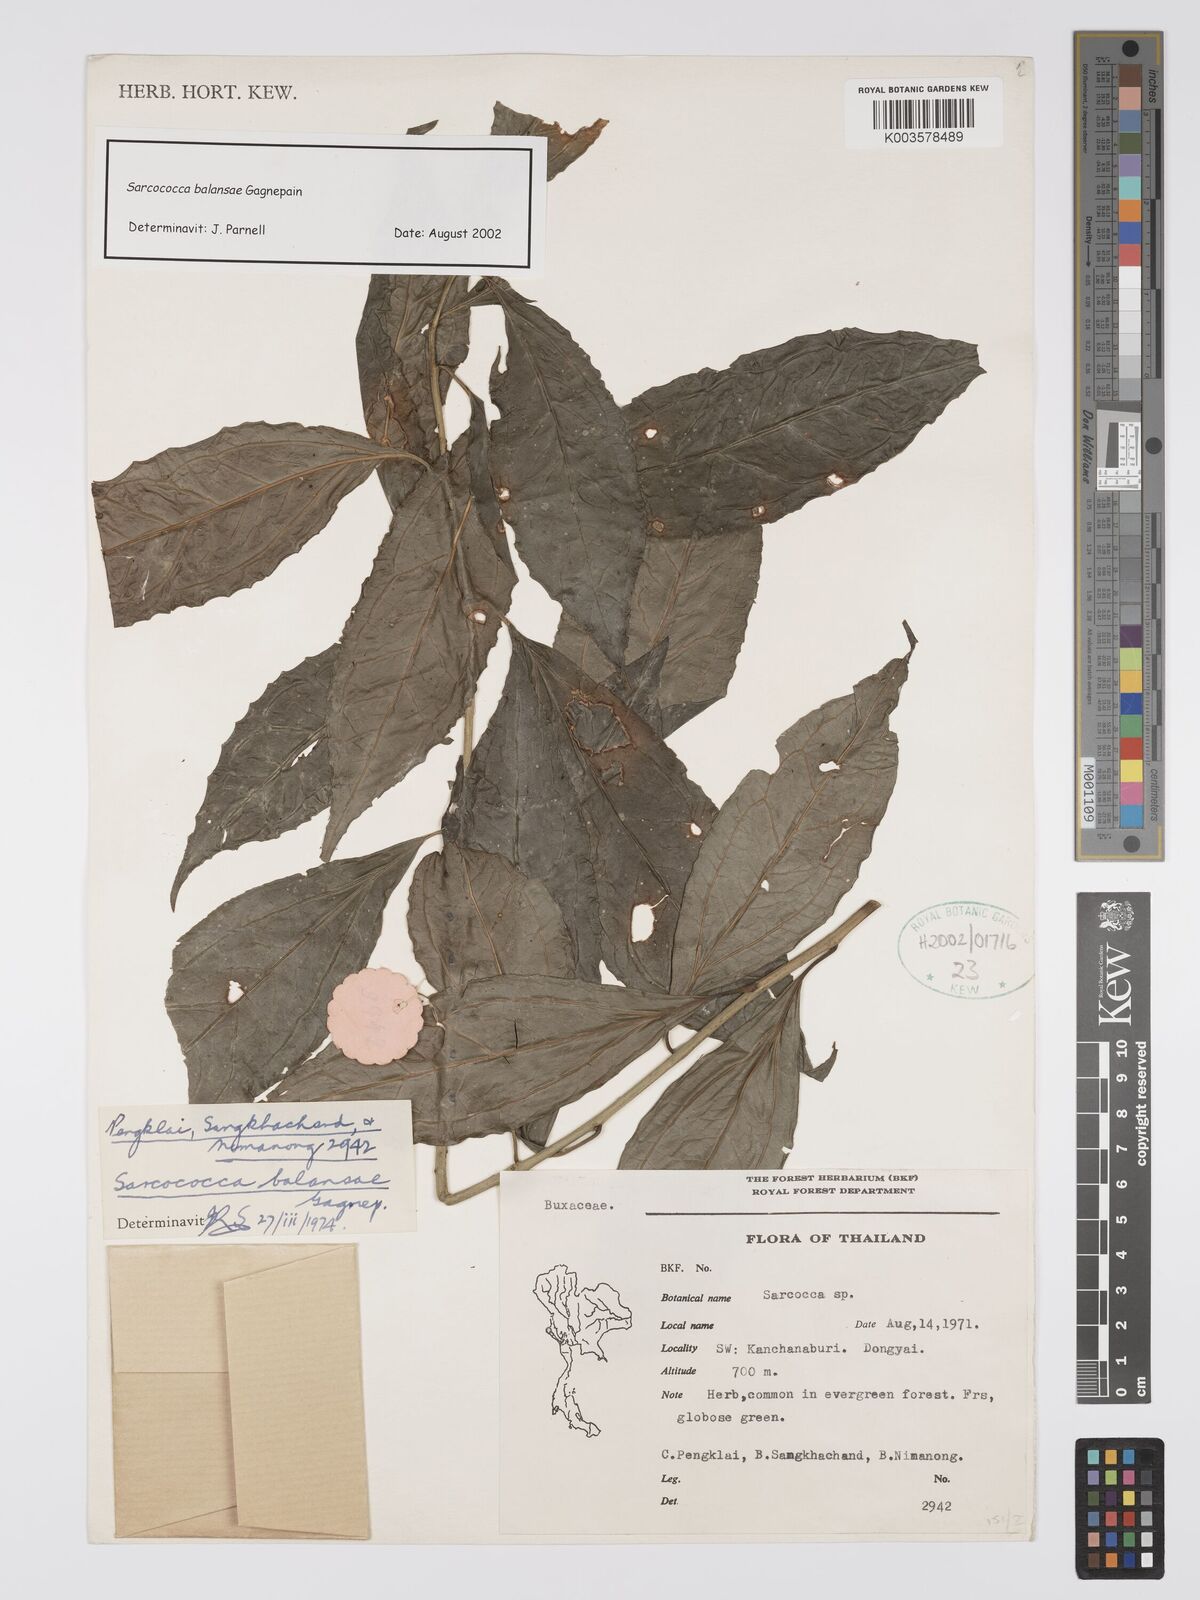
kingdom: Plantae
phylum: Tracheophyta
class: Magnoliopsida
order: Buxales
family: Buxaceae
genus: Sarcococca
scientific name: Sarcococca balansae
